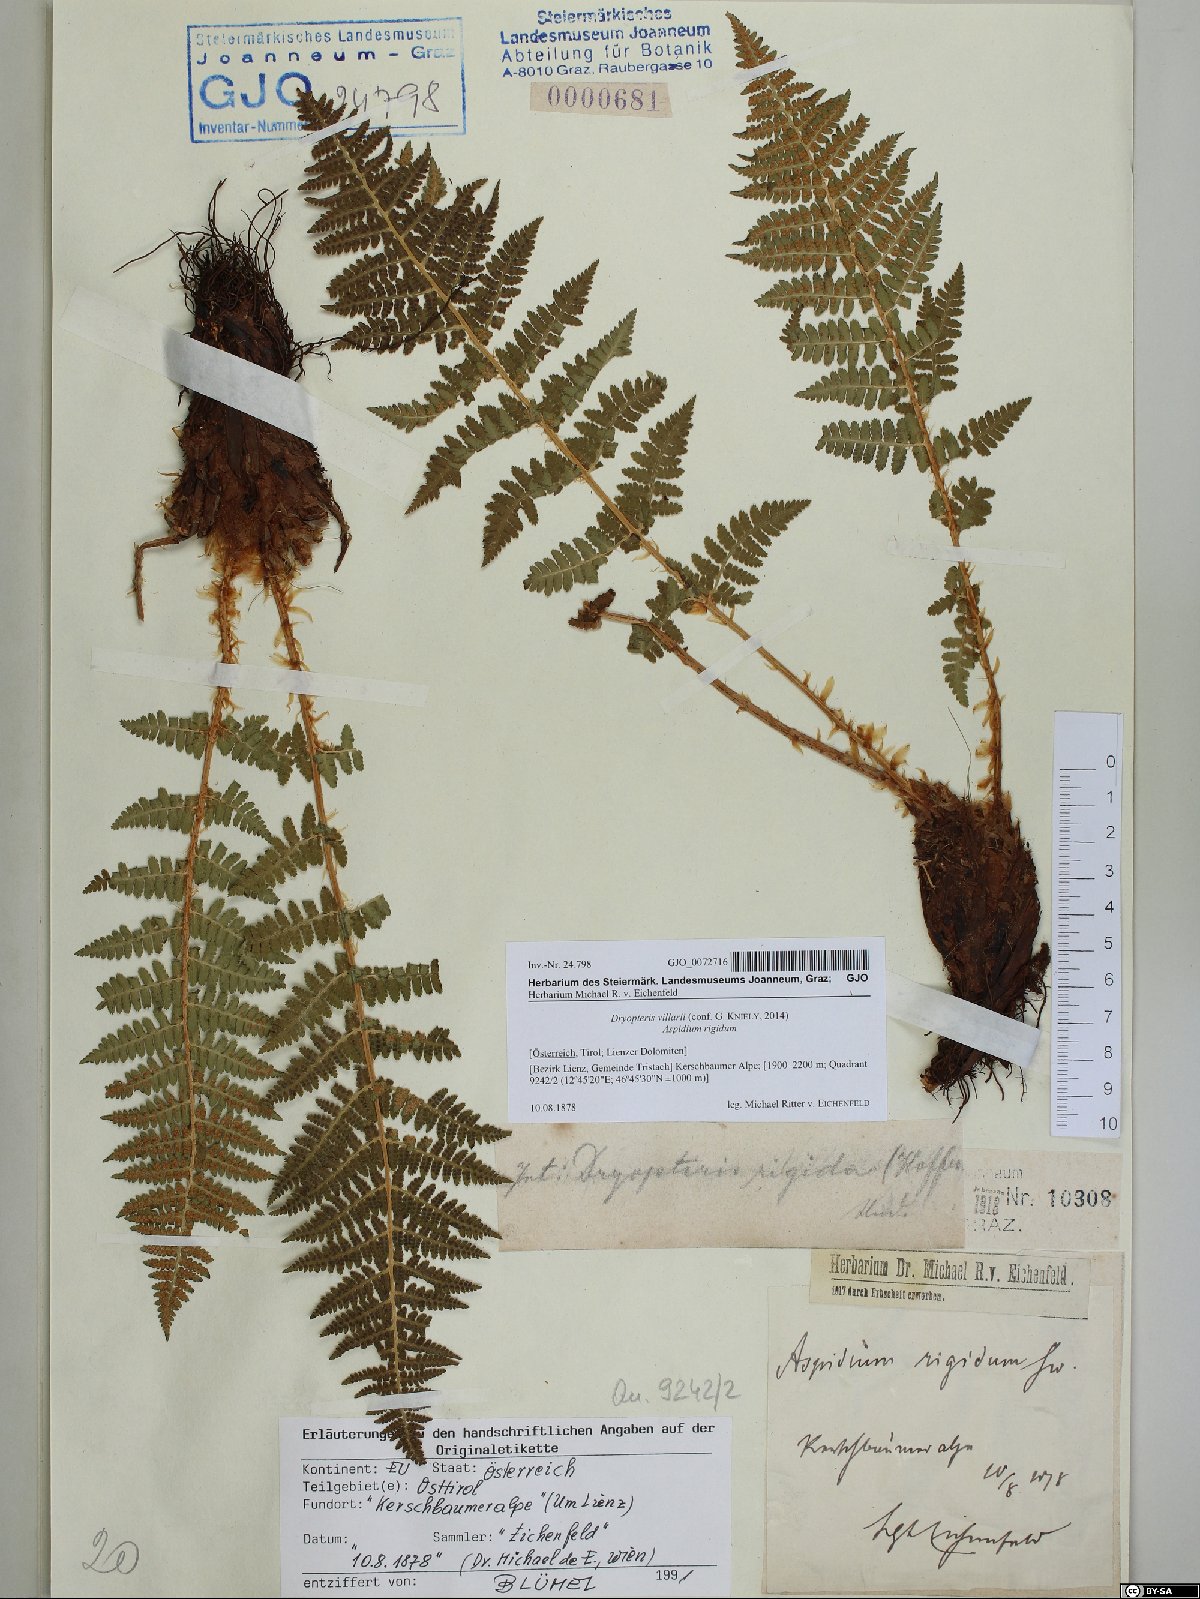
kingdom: Plantae
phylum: Tracheophyta
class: Polypodiopsida
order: Polypodiales
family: Dryopteridaceae
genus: Dryopteris
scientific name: Dryopteris villarii
